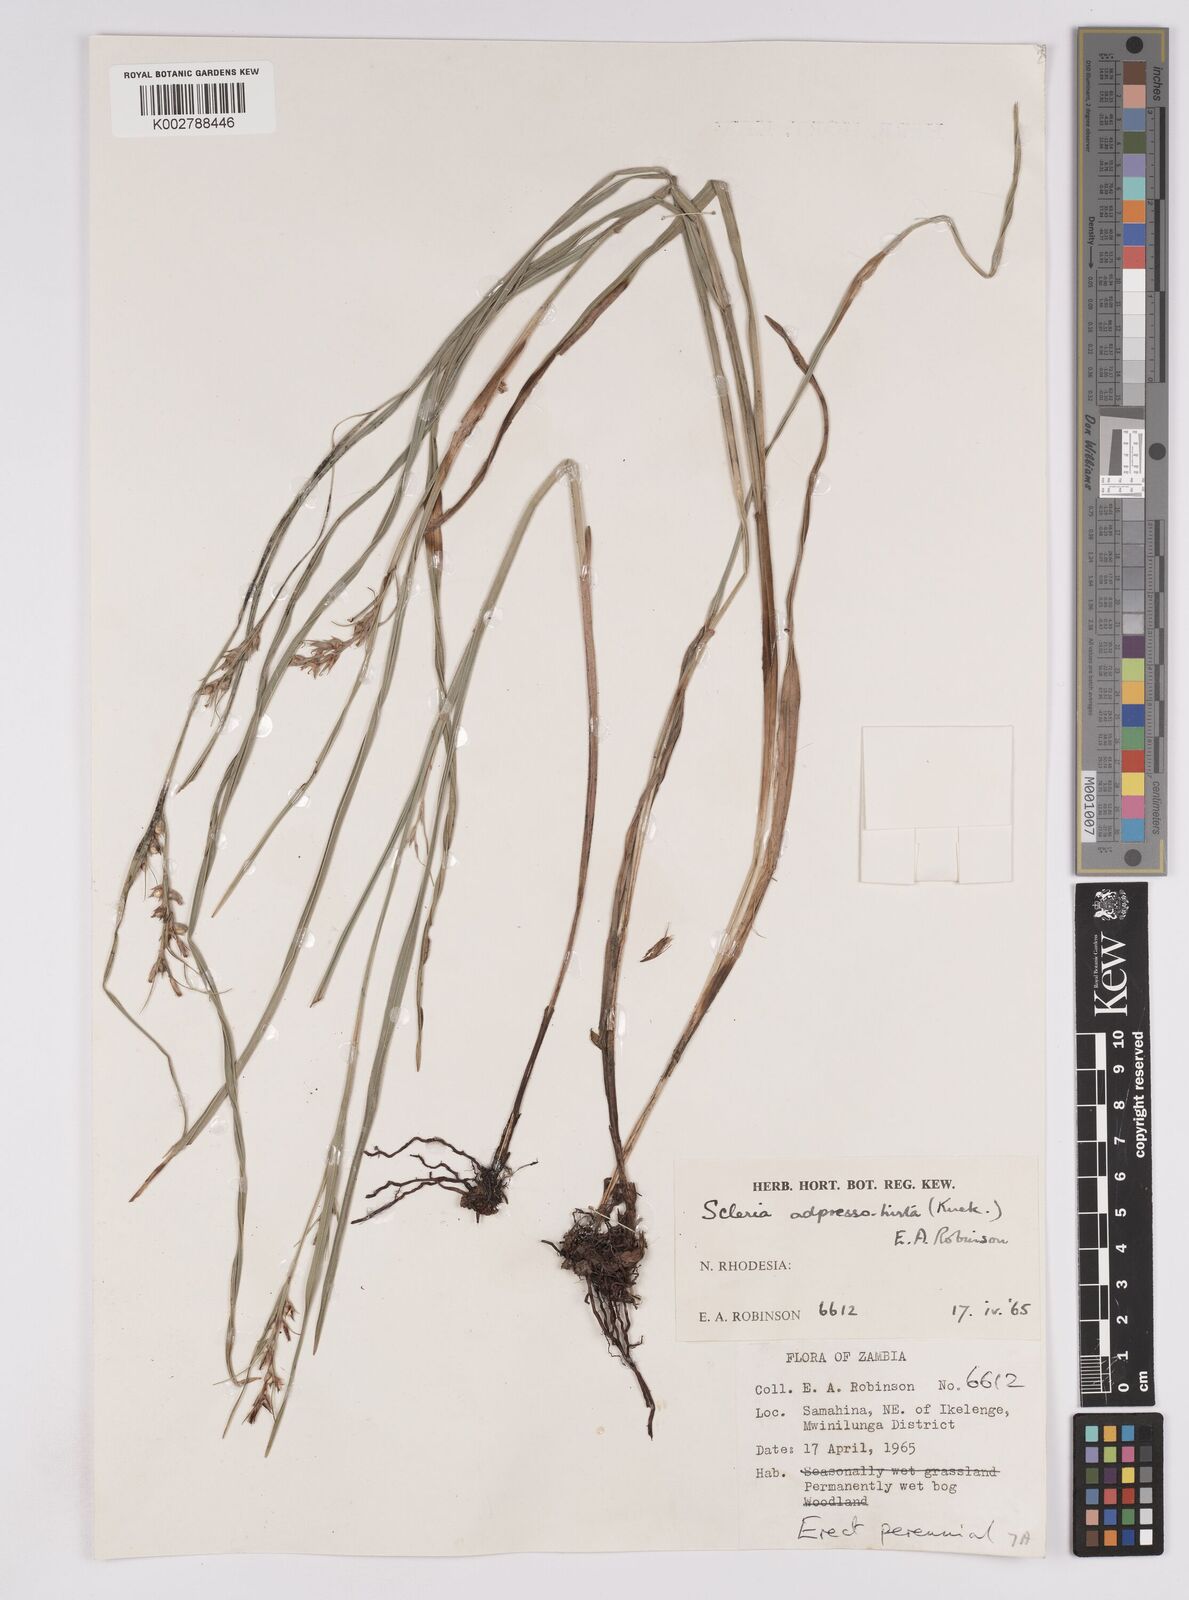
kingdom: Plantae
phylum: Tracheophyta
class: Liliopsida
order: Poales
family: Cyperaceae
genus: Scleria
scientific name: Scleria adpressohirta
